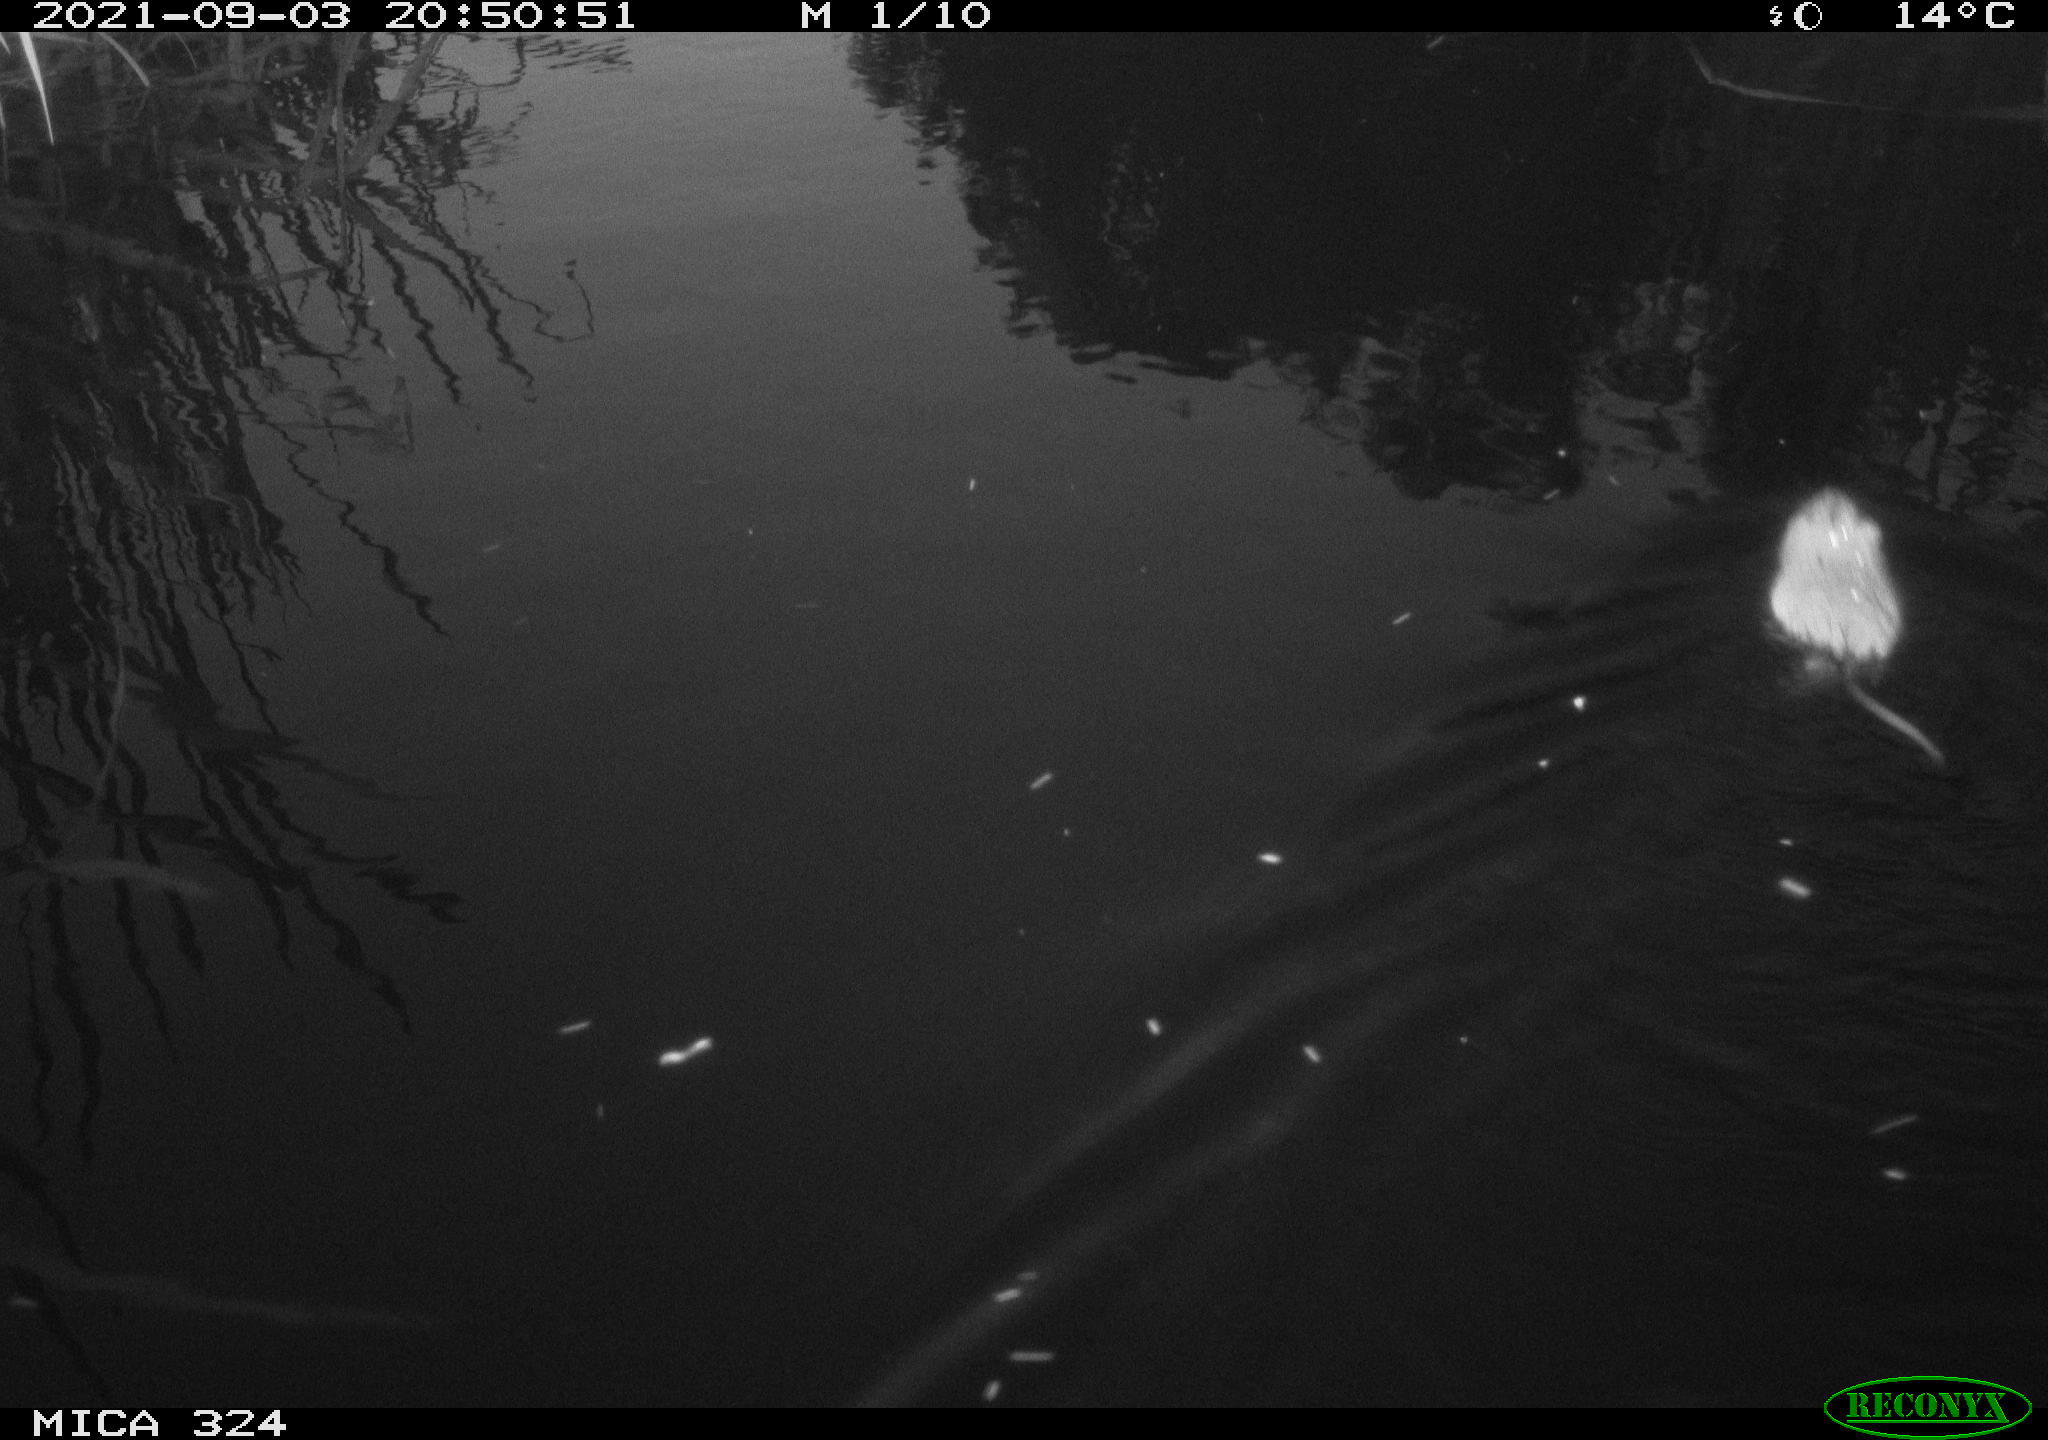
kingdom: Animalia
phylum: Chordata
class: Mammalia
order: Rodentia
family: Cricetidae
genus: Ondatra
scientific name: Ondatra zibethicus
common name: Muskrat
